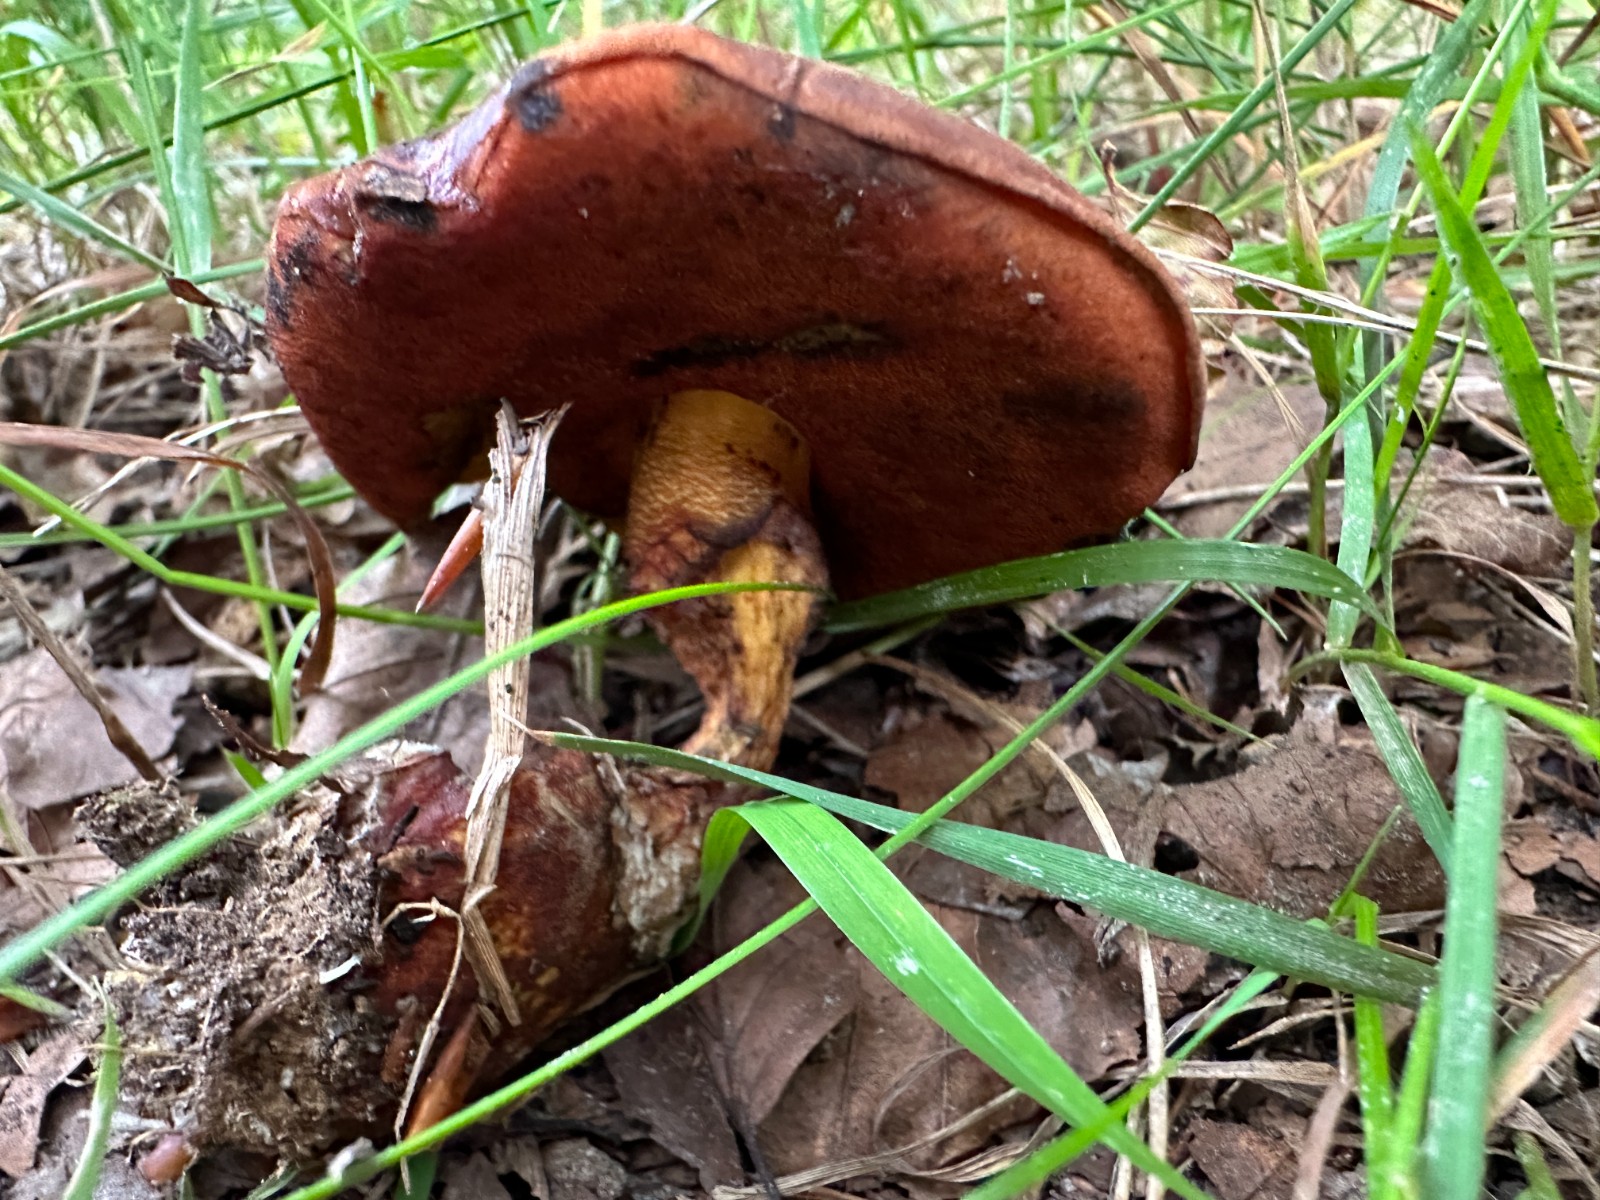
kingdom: Fungi
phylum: Basidiomycota
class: Agaricomycetes
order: Boletales
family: Boletaceae
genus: Neoboletus
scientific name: Neoboletus
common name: indigorørhat
